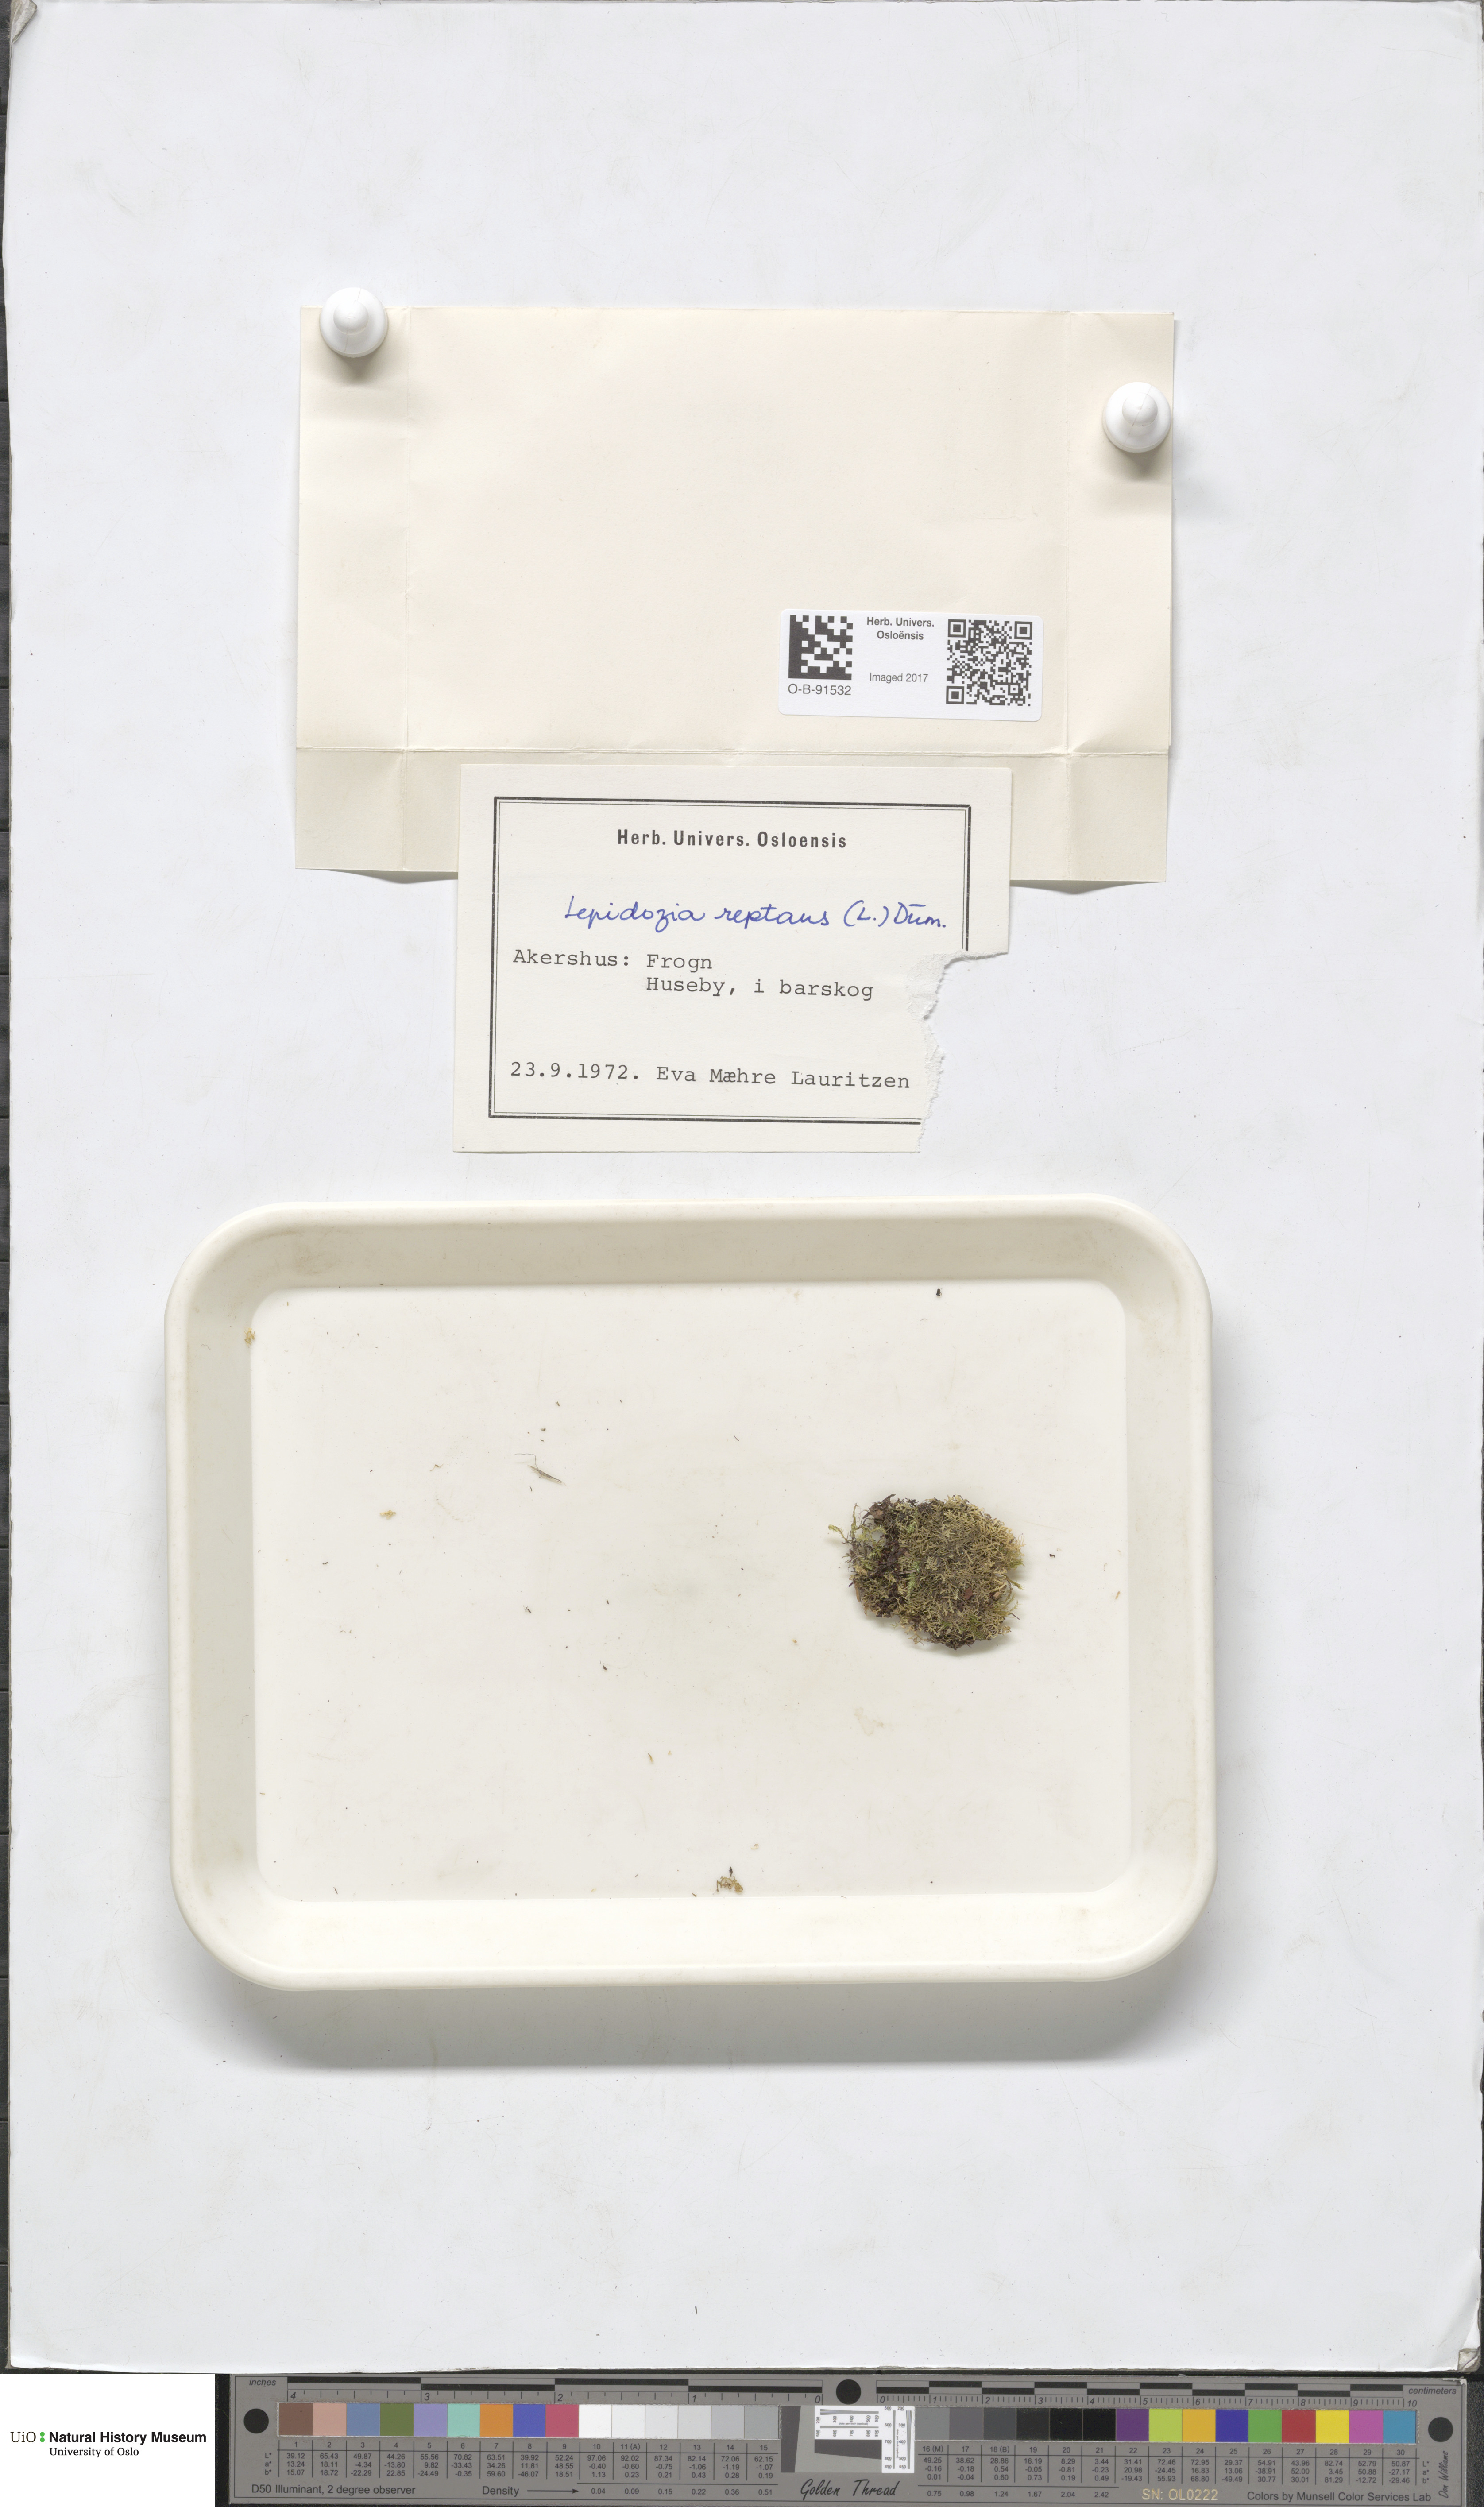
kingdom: Plantae
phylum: Marchantiophyta
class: Jungermanniopsida
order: Jungermanniales
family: Lepidoziaceae
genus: Lepidozia
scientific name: Lepidozia reptans
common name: Creeping fingerwort
